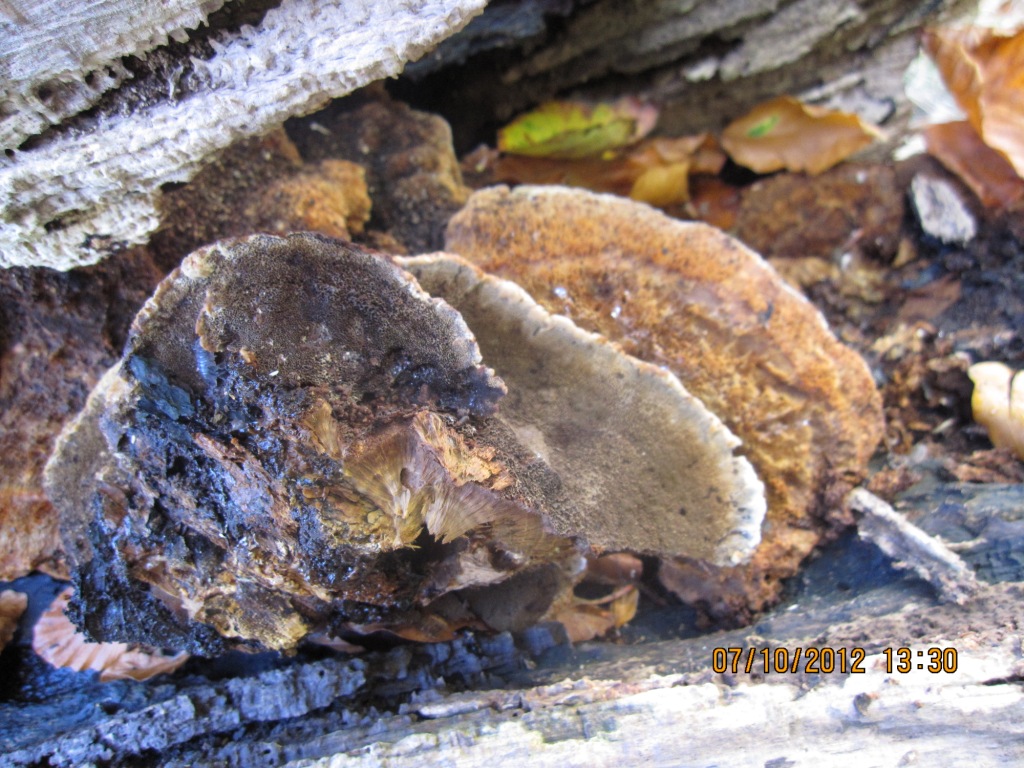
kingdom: Fungi
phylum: Basidiomycota
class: Agaricomycetes
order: Hymenochaetales
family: Hymenochaetaceae
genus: Inonotus
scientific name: Inonotus cuticularis
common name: kroghåret spejlporesvamp
